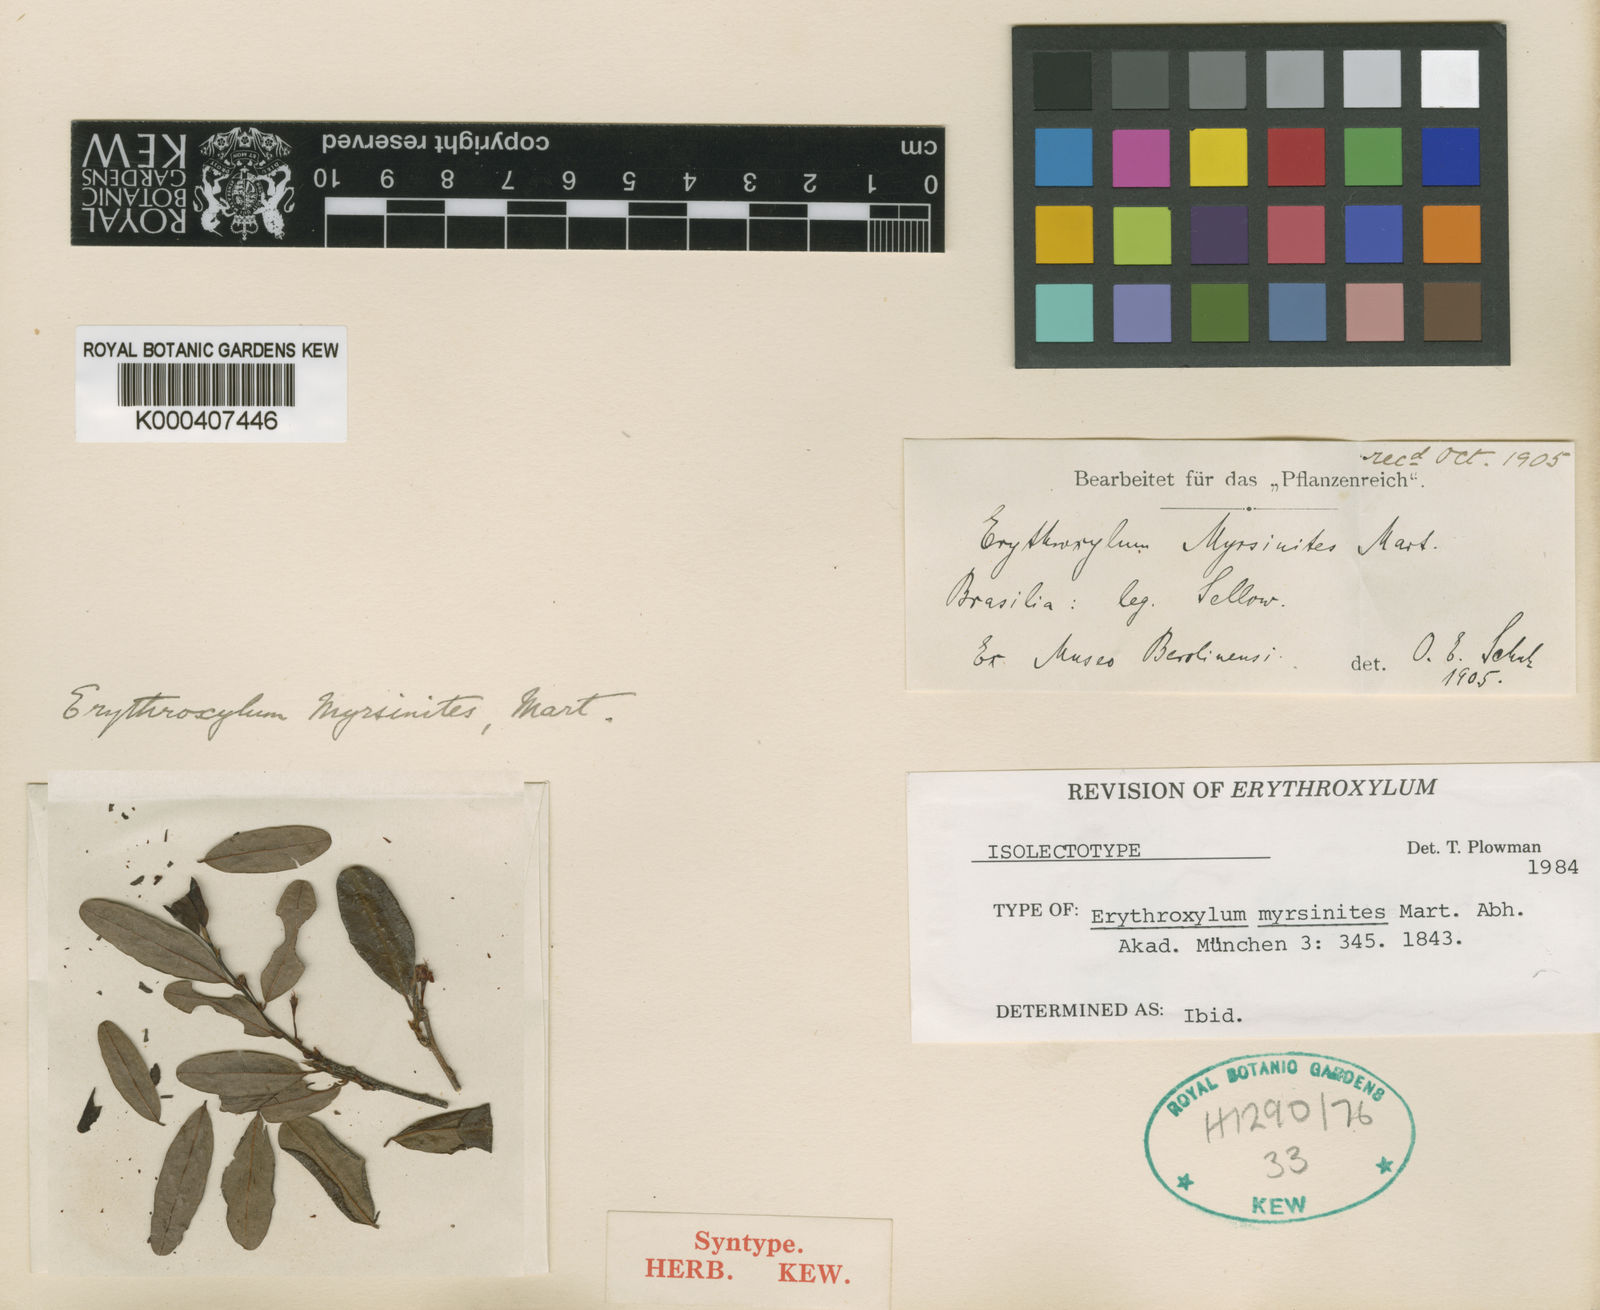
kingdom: Plantae
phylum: Tracheophyta
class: Magnoliopsida
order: Malpighiales
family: Erythroxylaceae
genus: Erythroxylum
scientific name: Erythroxylum myrsinites
